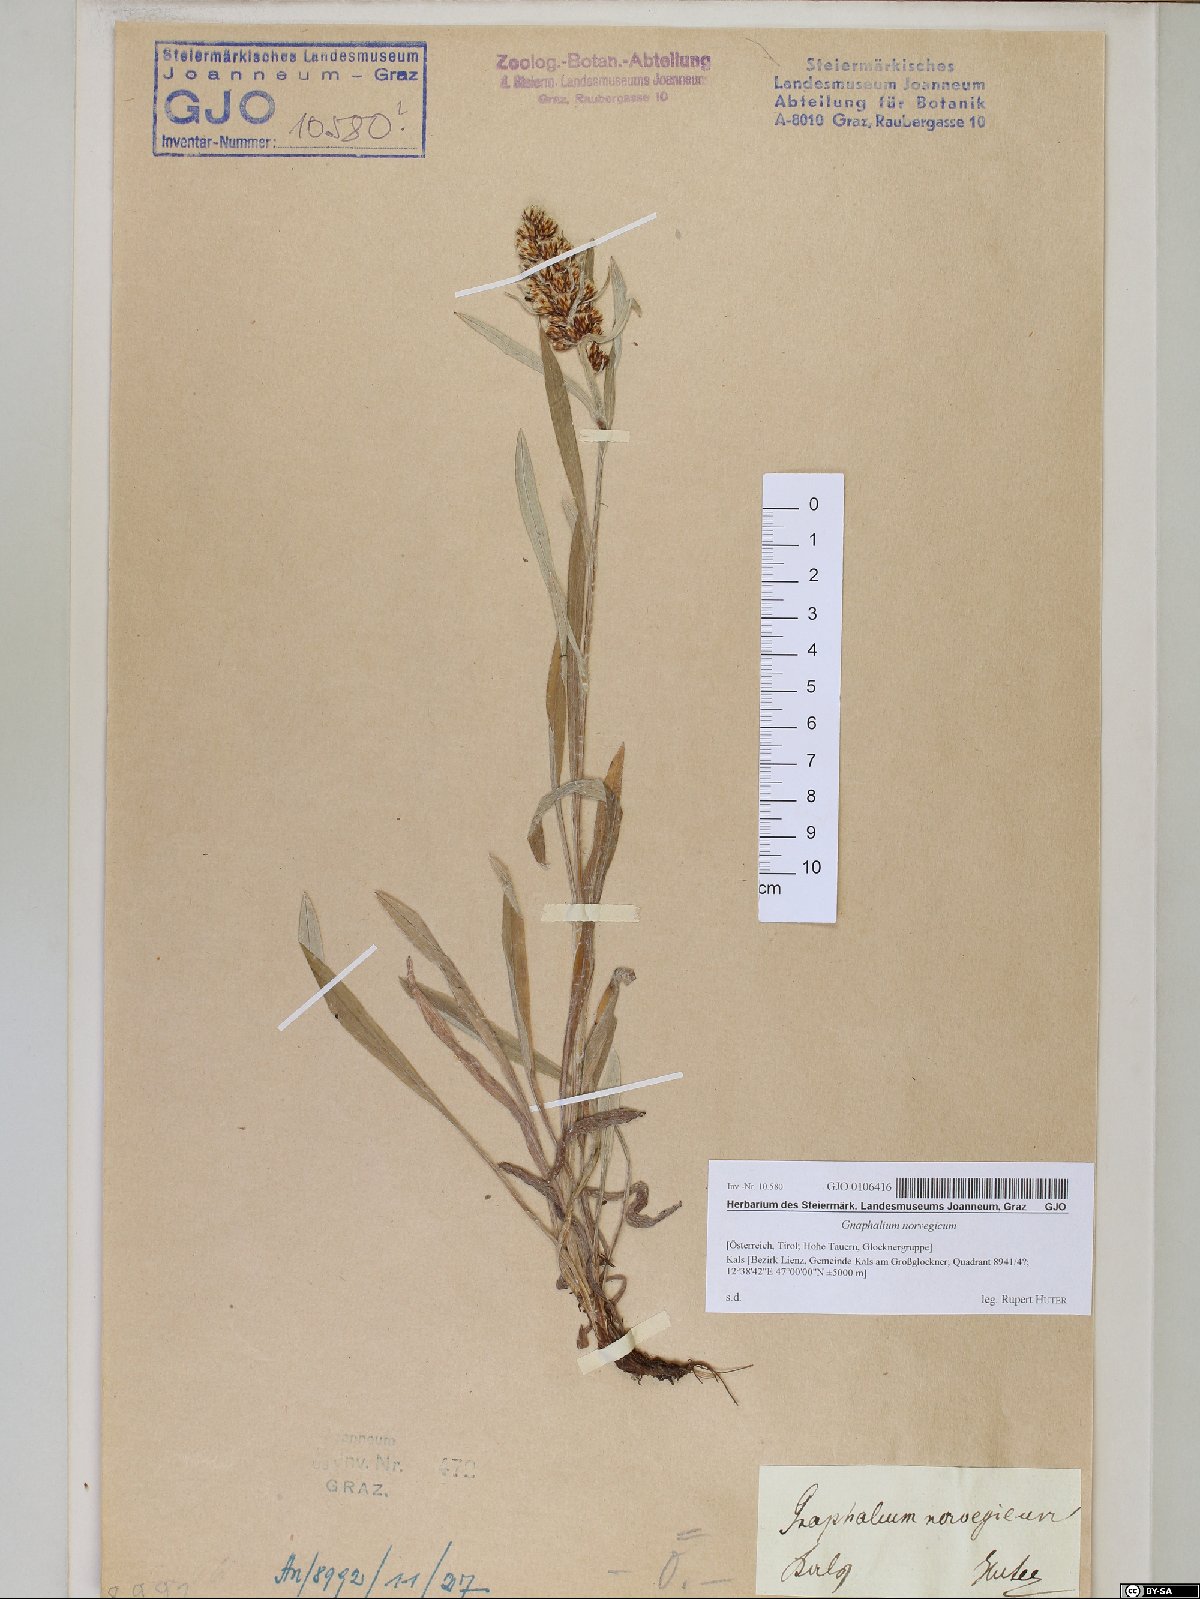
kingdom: Plantae
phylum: Tracheophyta
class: Magnoliopsida
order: Asterales
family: Asteraceae
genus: Omalotheca
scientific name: Omalotheca norvegica
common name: Norwegian arctic-cudweed
